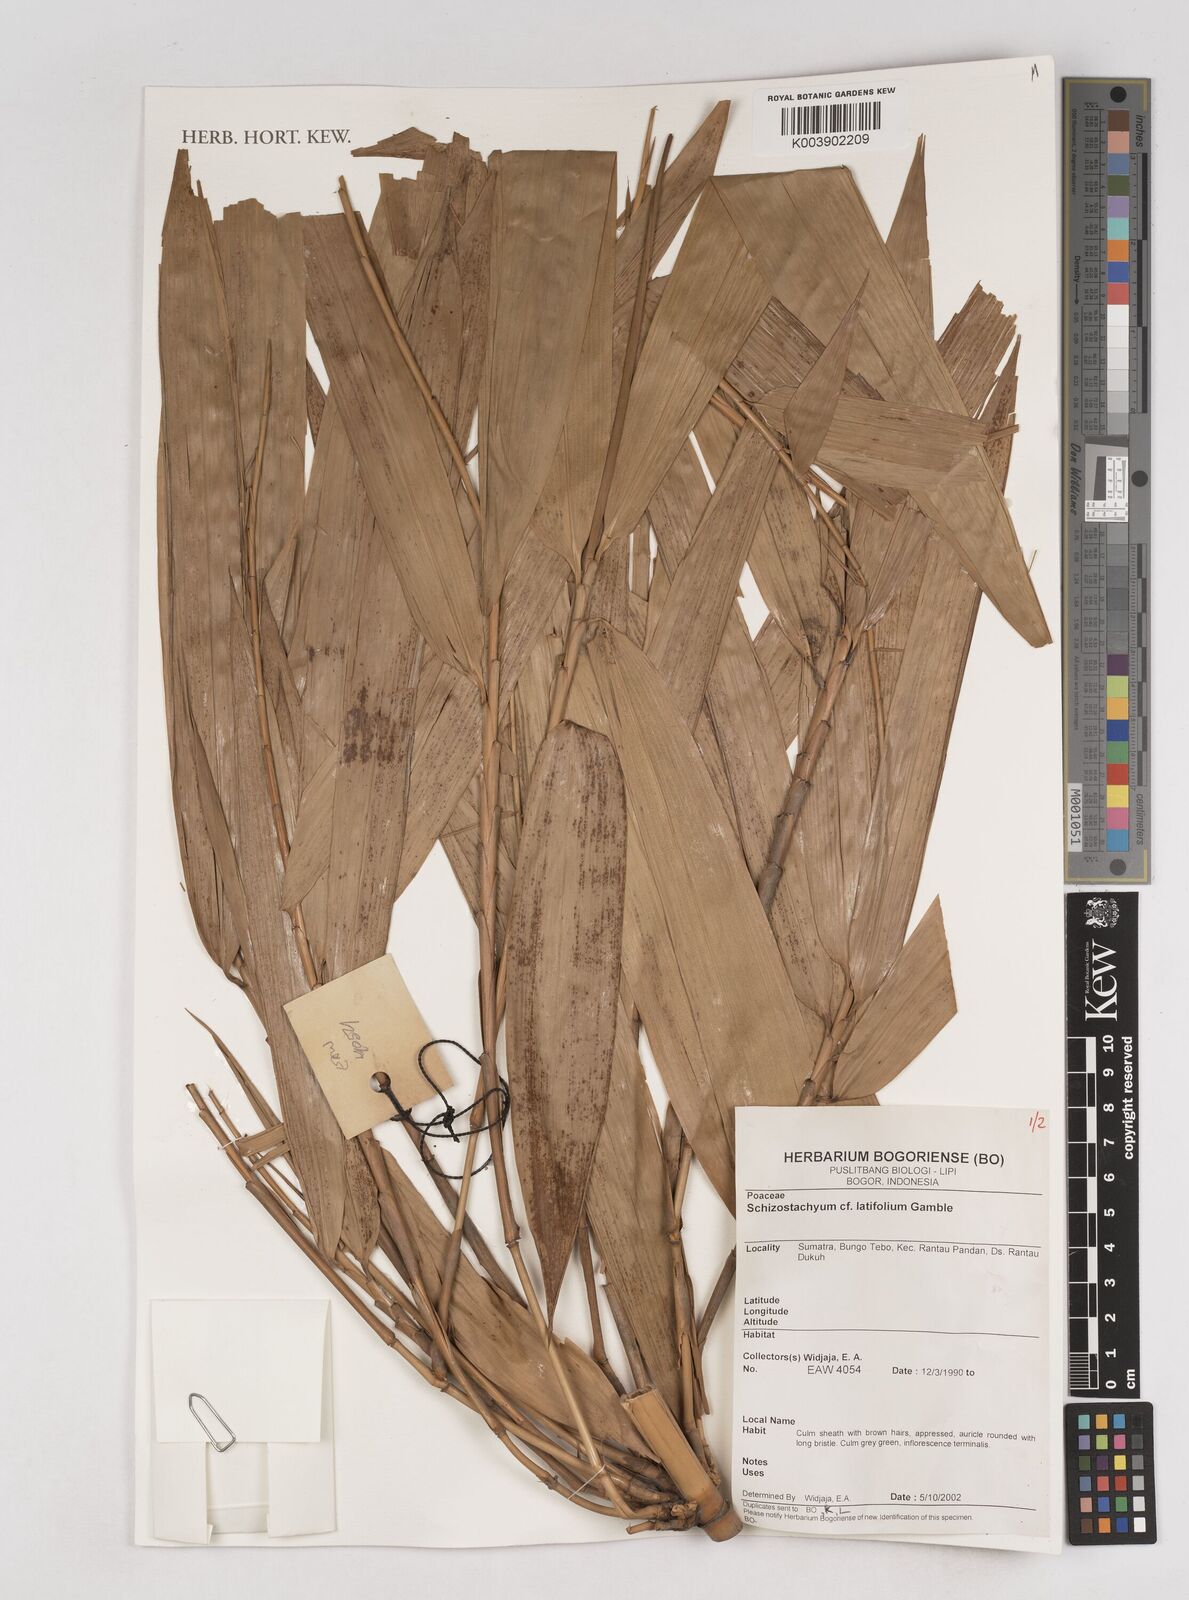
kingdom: Plantae
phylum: Tracheophyta
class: Liliopsida
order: Poales
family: Poaceae
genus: Schizostachyum
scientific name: Schizostachyum latifolium
